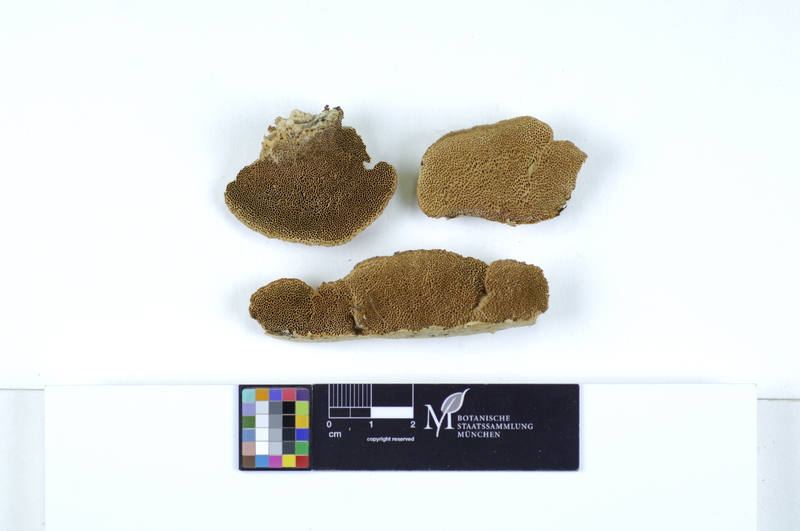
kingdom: Plantae
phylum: Tracheophyta
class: Magnoliopsida
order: Malpighiales
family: Salicaceae
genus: Populus
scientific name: Populus
